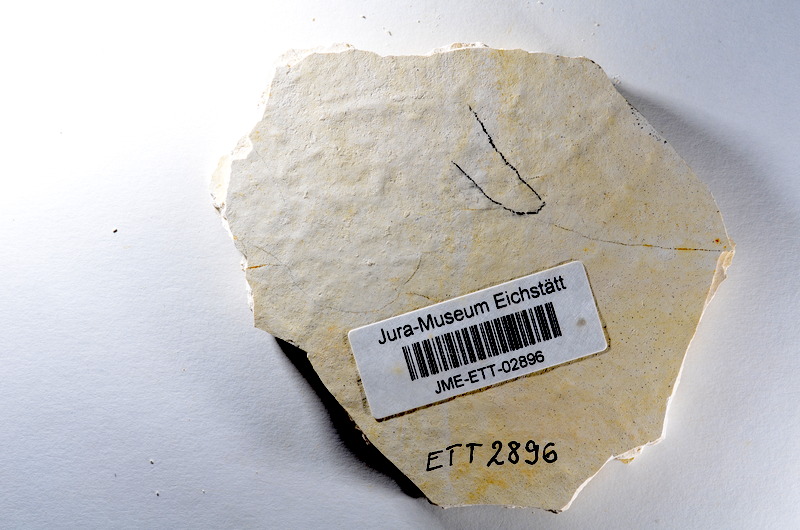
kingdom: Animalia
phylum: Chordata
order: Salmoniformes
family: Orthogonikleithridae
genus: Orthogonikleithrus
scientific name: Orthogonikleithrus hoelli
